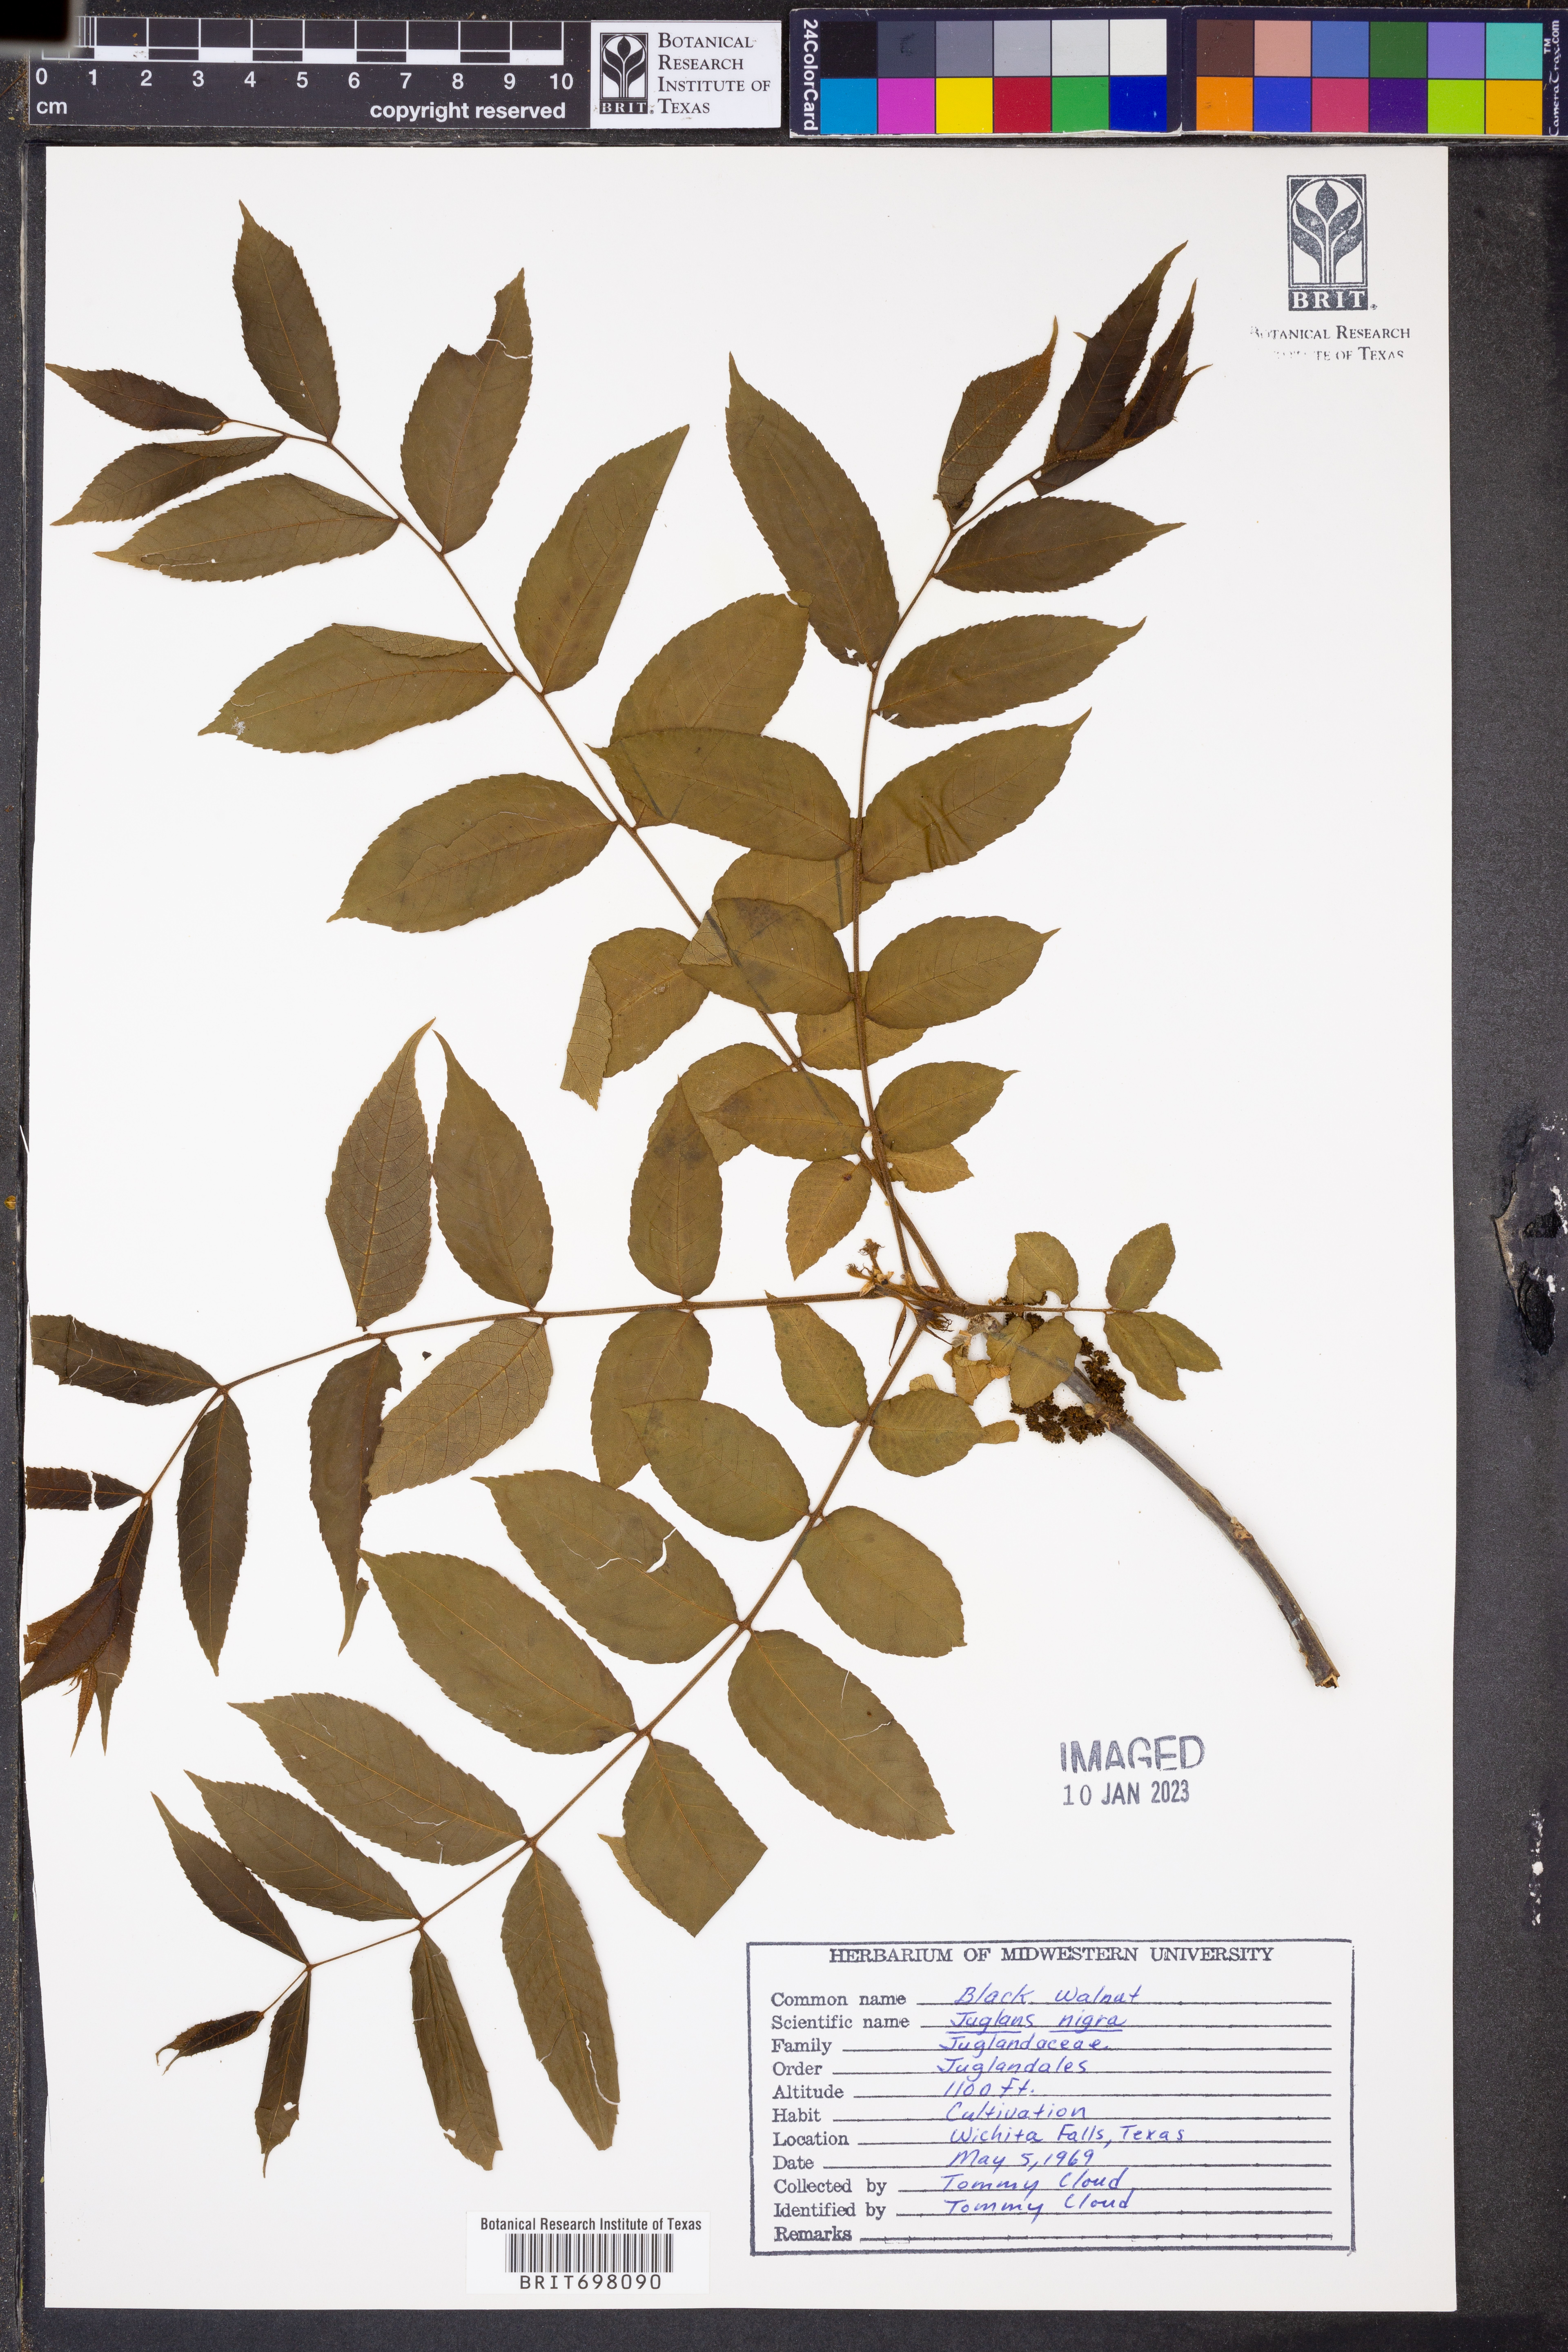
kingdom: Plantae
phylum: Tracheophyta
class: Magnoliopsida
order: Fagales
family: Juglandaceae
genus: Juglans
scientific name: Juglans nigra
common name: Black walnut
